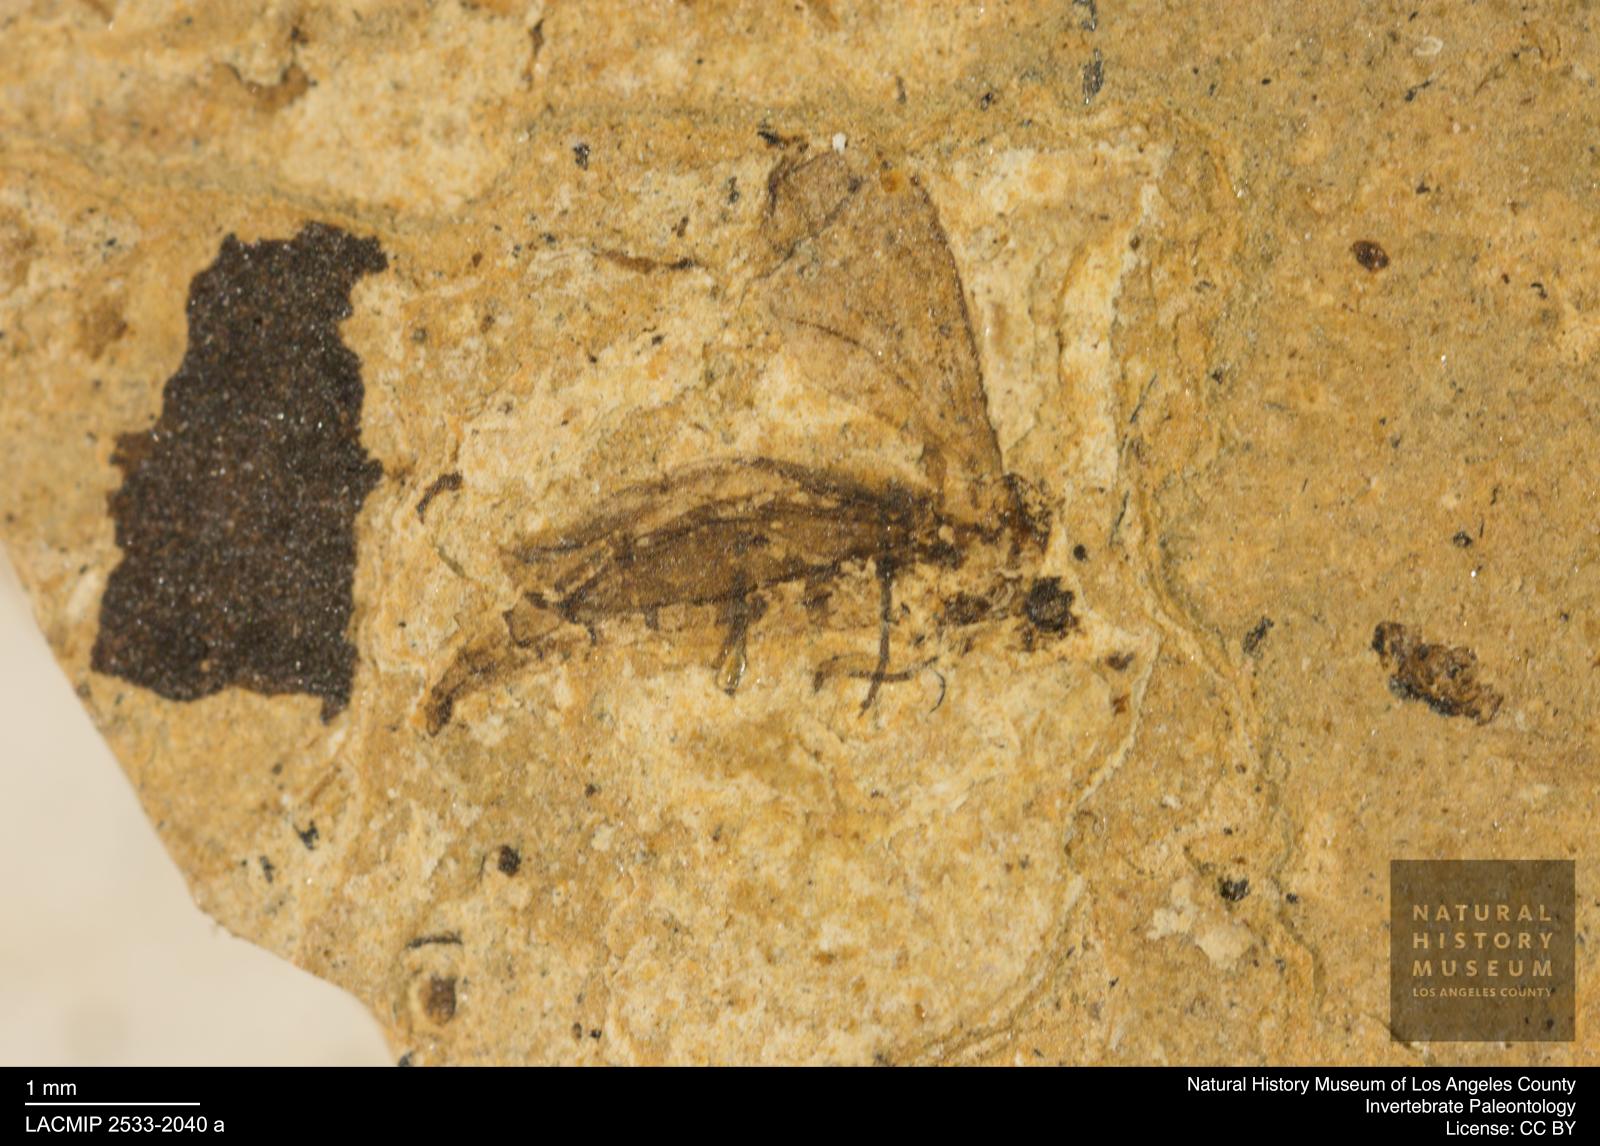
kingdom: Animalia
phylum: Arthropoda
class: Insecta
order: Diptera
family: Sciaridae
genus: Sciara
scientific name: Sciara heydeni
